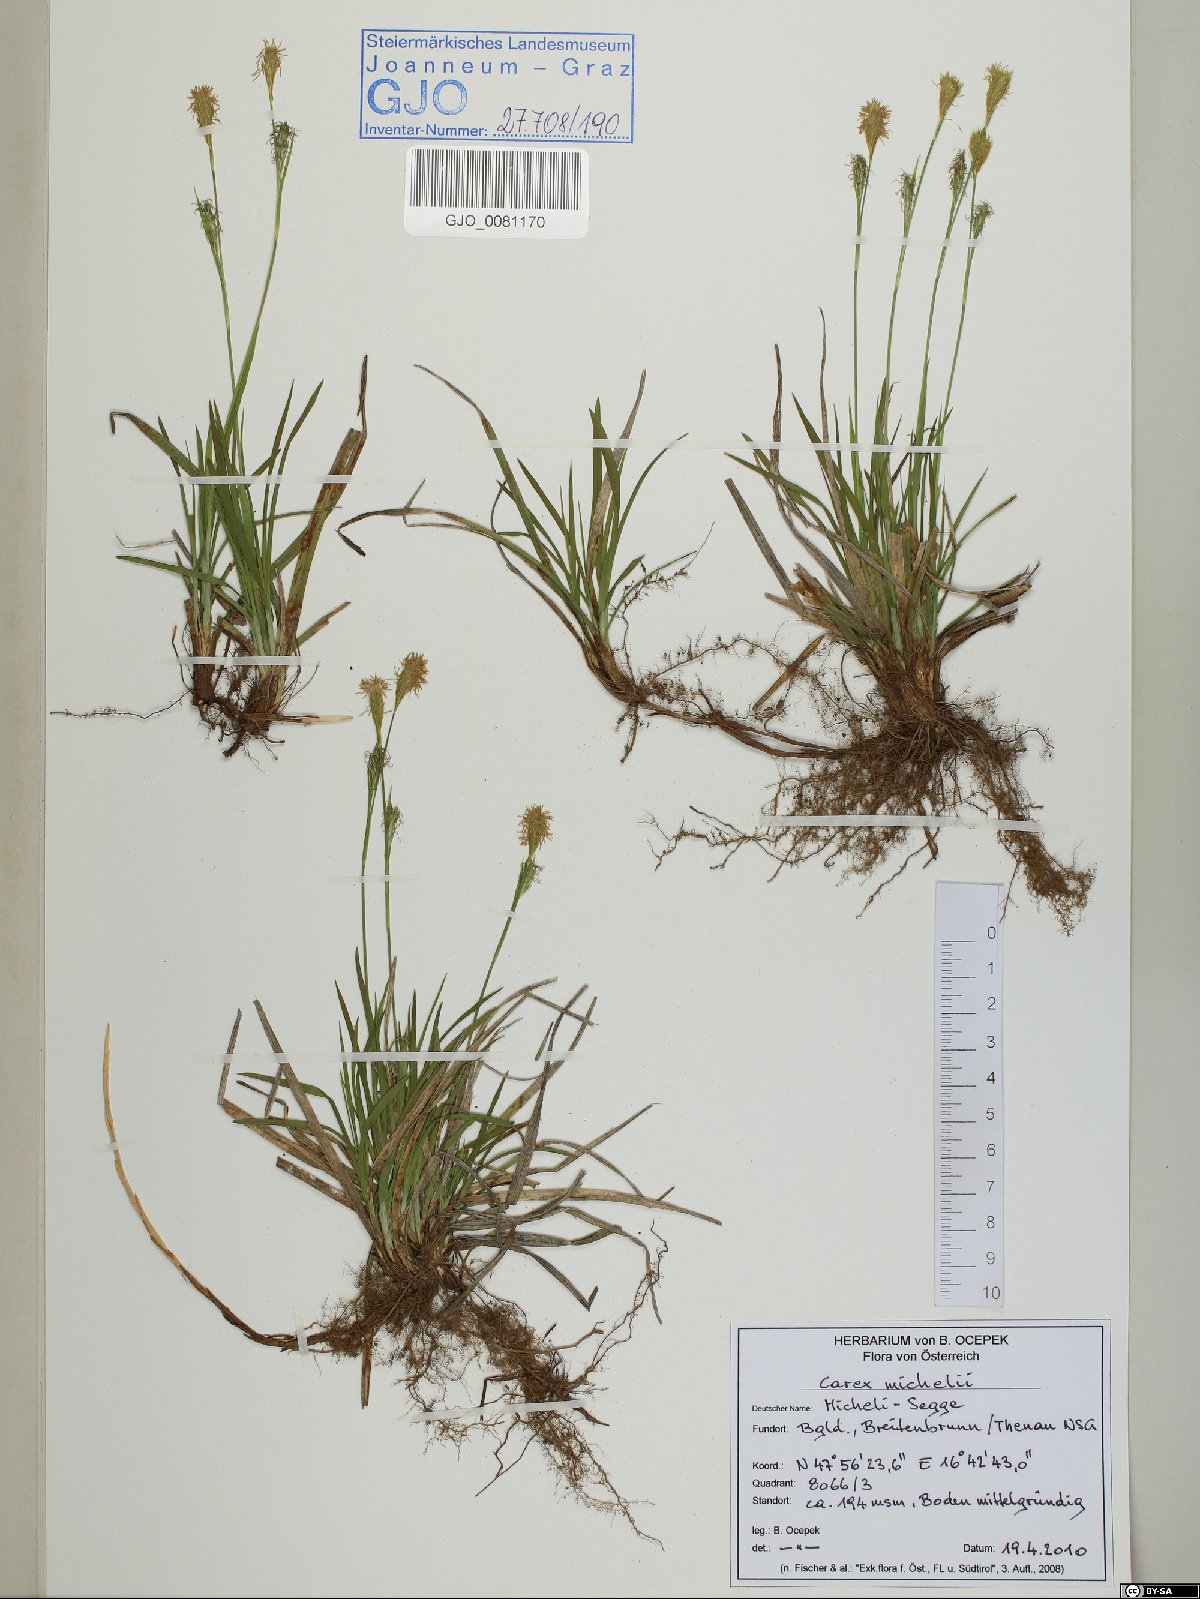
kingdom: Plantae
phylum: Tracheophyta
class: Liliopsida
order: Poales
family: Cyperaceae
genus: Carex
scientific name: Carex michelii
